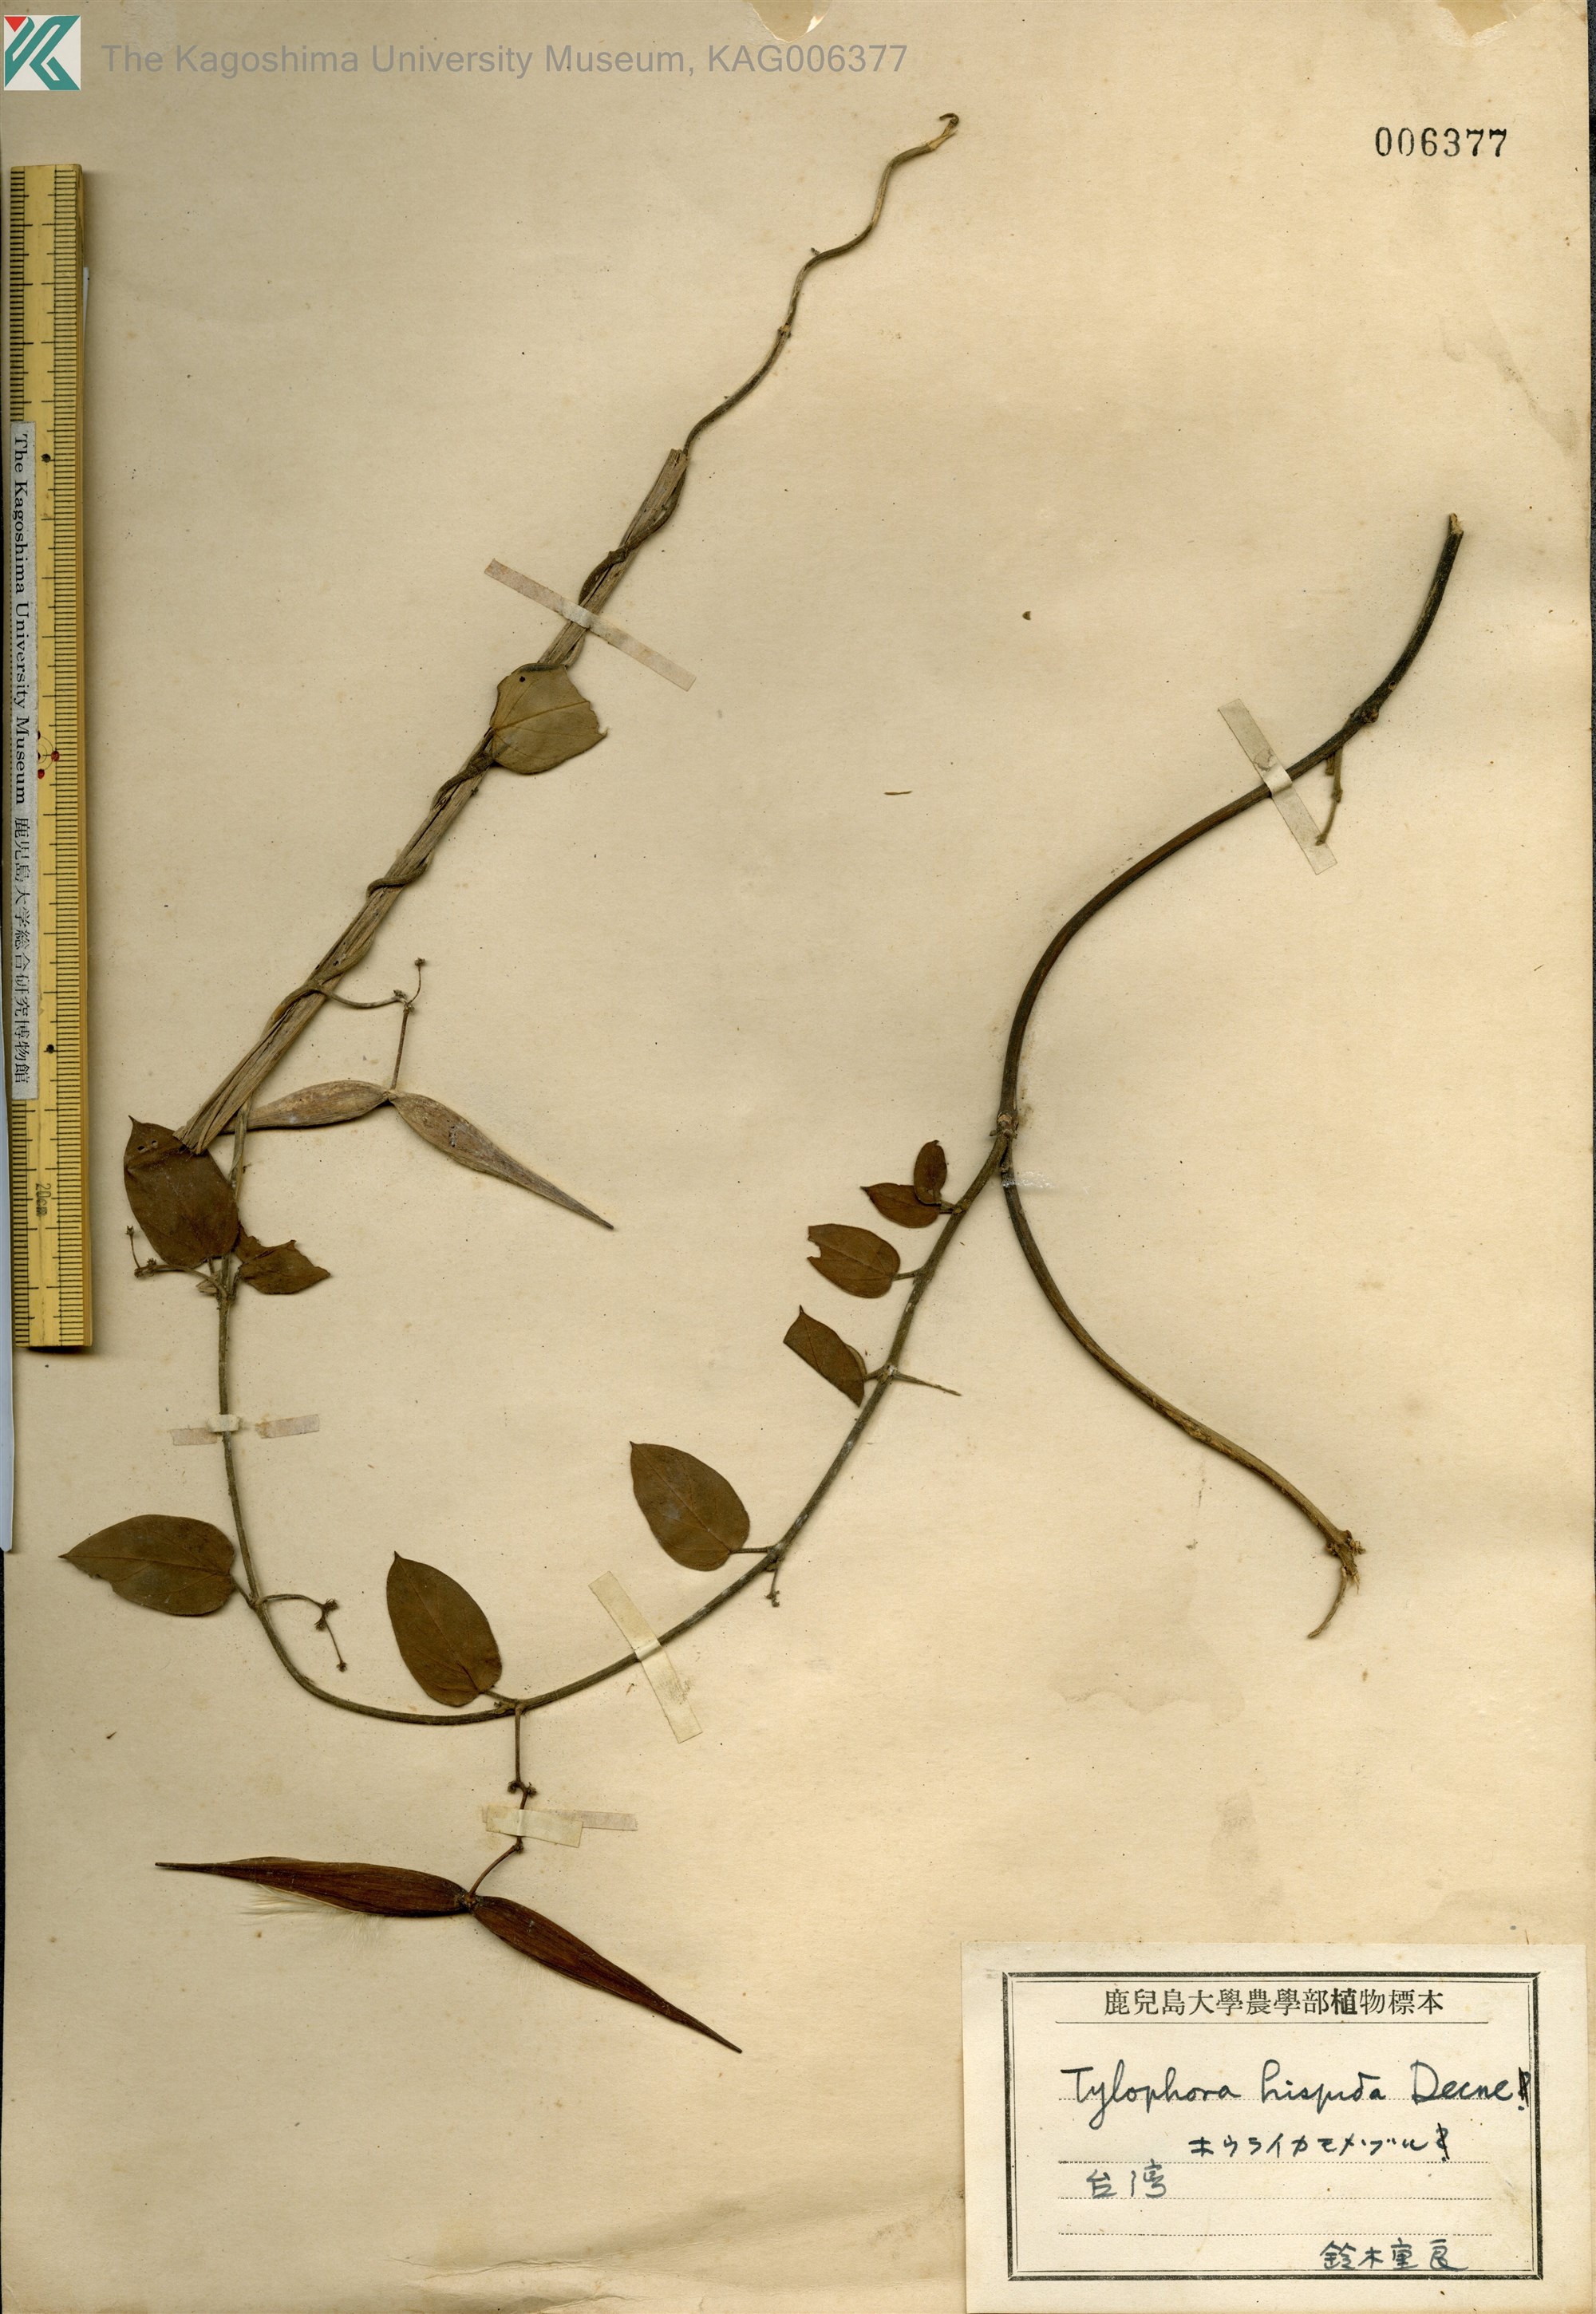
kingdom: Plantae
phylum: Tracheophyta
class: Magnoliopsida
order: Gentianales
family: Apocynaceae
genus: Vincetoxicum
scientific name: Vincetoxicum hirsutum
